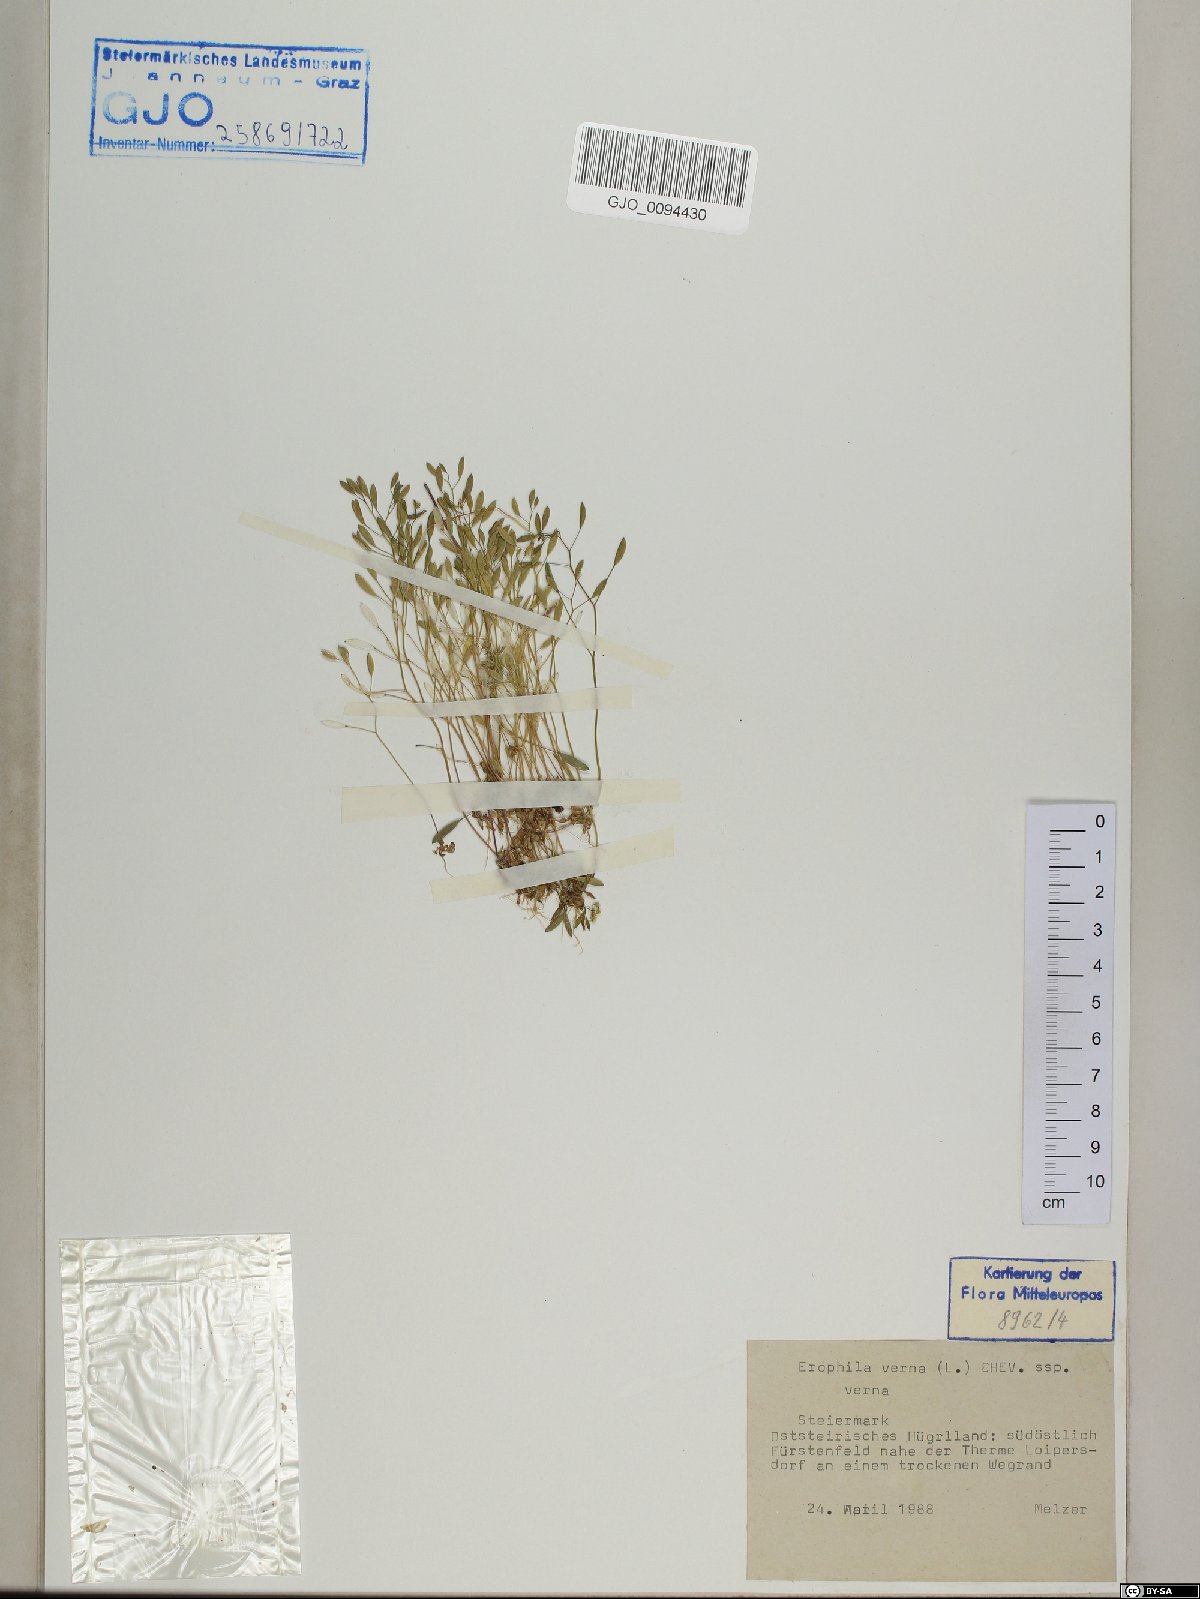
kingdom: Plantae
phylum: Tracheophyta
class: Magnoliopsida
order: Brassicales
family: Brassicaceae
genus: Draba
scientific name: Draba verna
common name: Spring draba
